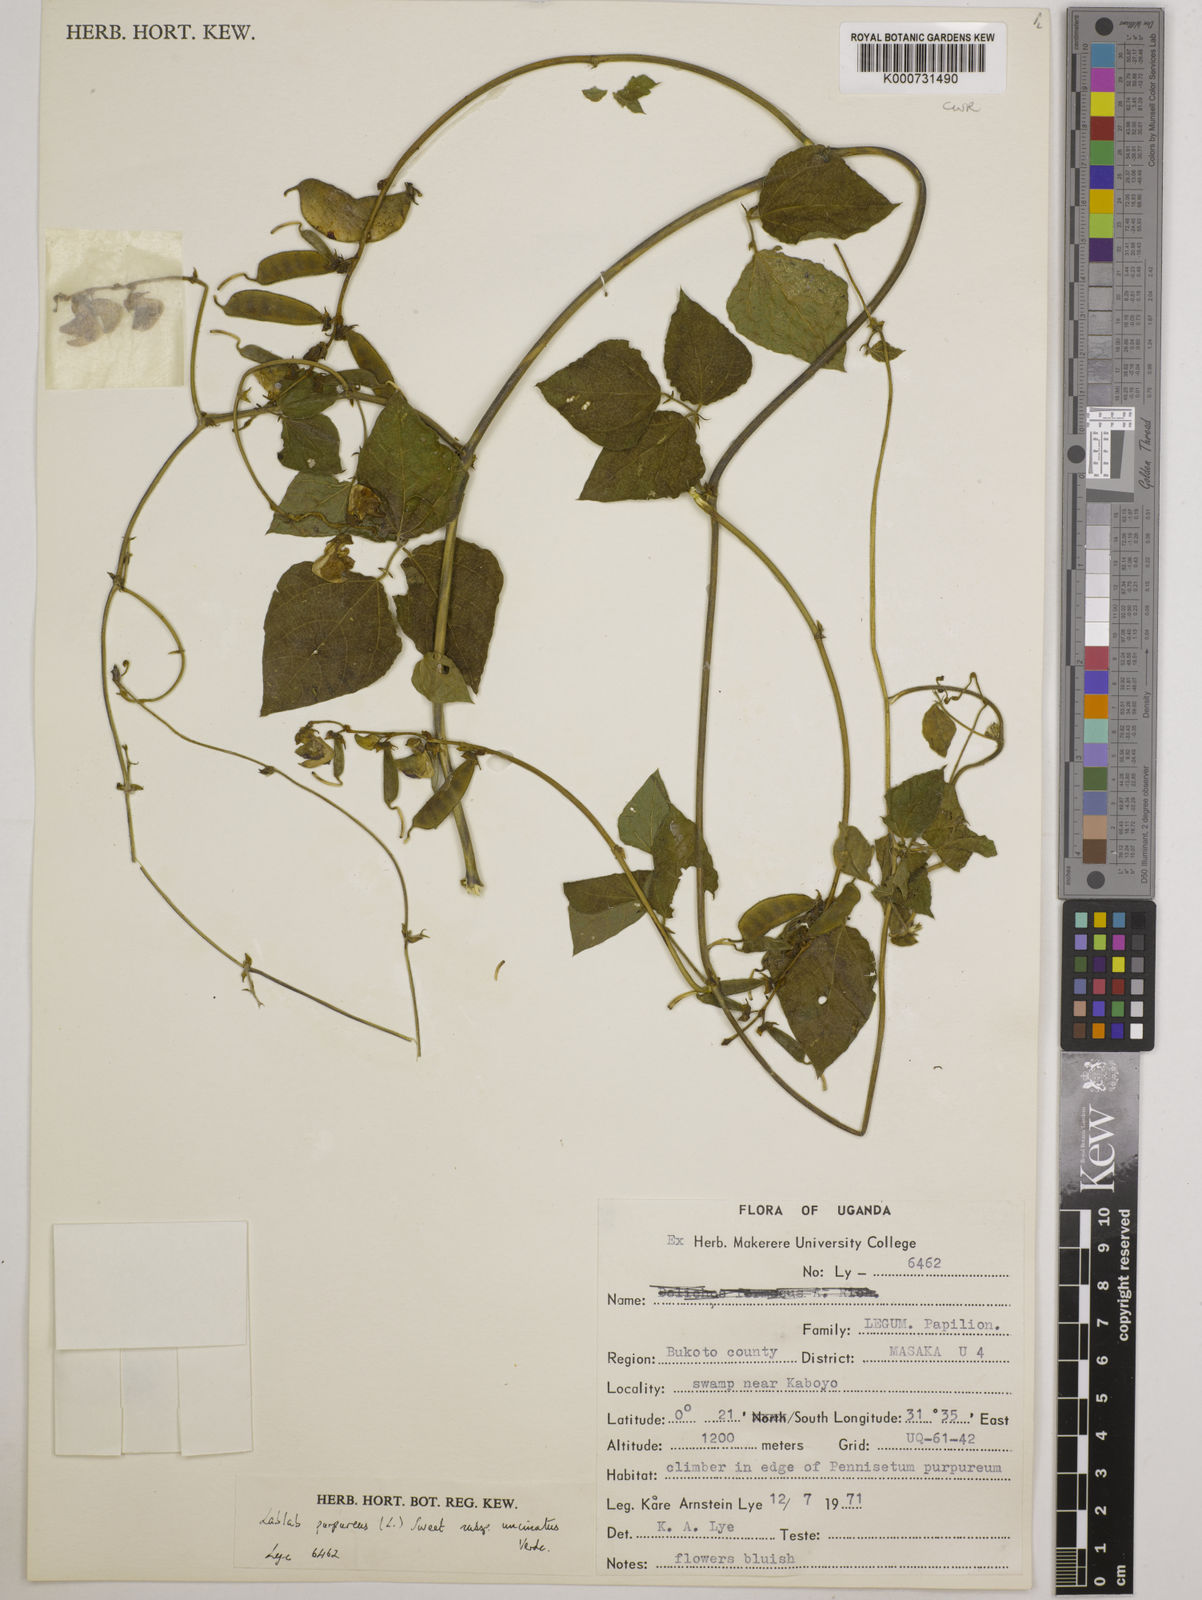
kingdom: Plantae
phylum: Tracheophyta
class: Magnoliopsida
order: Fabales
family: Fabaceae
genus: Lablab
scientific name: Lablab purpureus
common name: Lablab-bean
